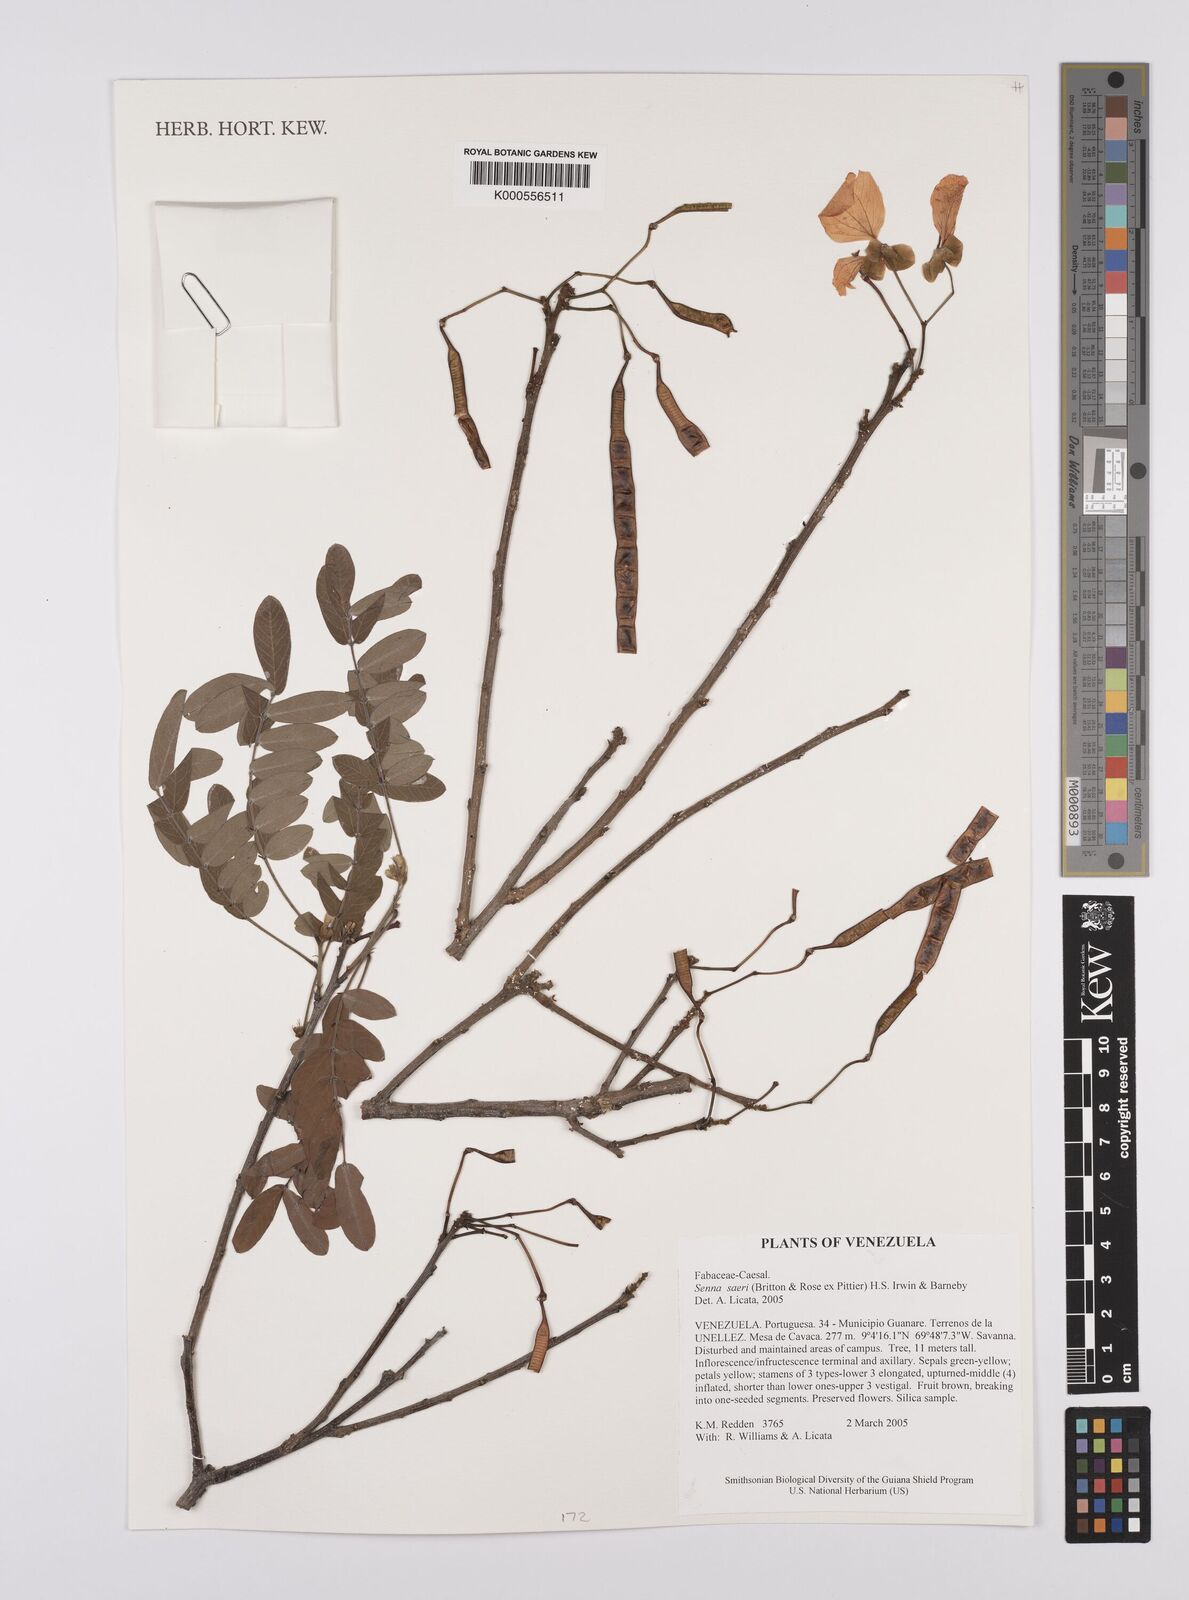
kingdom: Plantae
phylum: Tracheophyta
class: Magnoliopsida
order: Fabales
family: Fabaceae
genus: Senna
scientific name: Senna saeri
